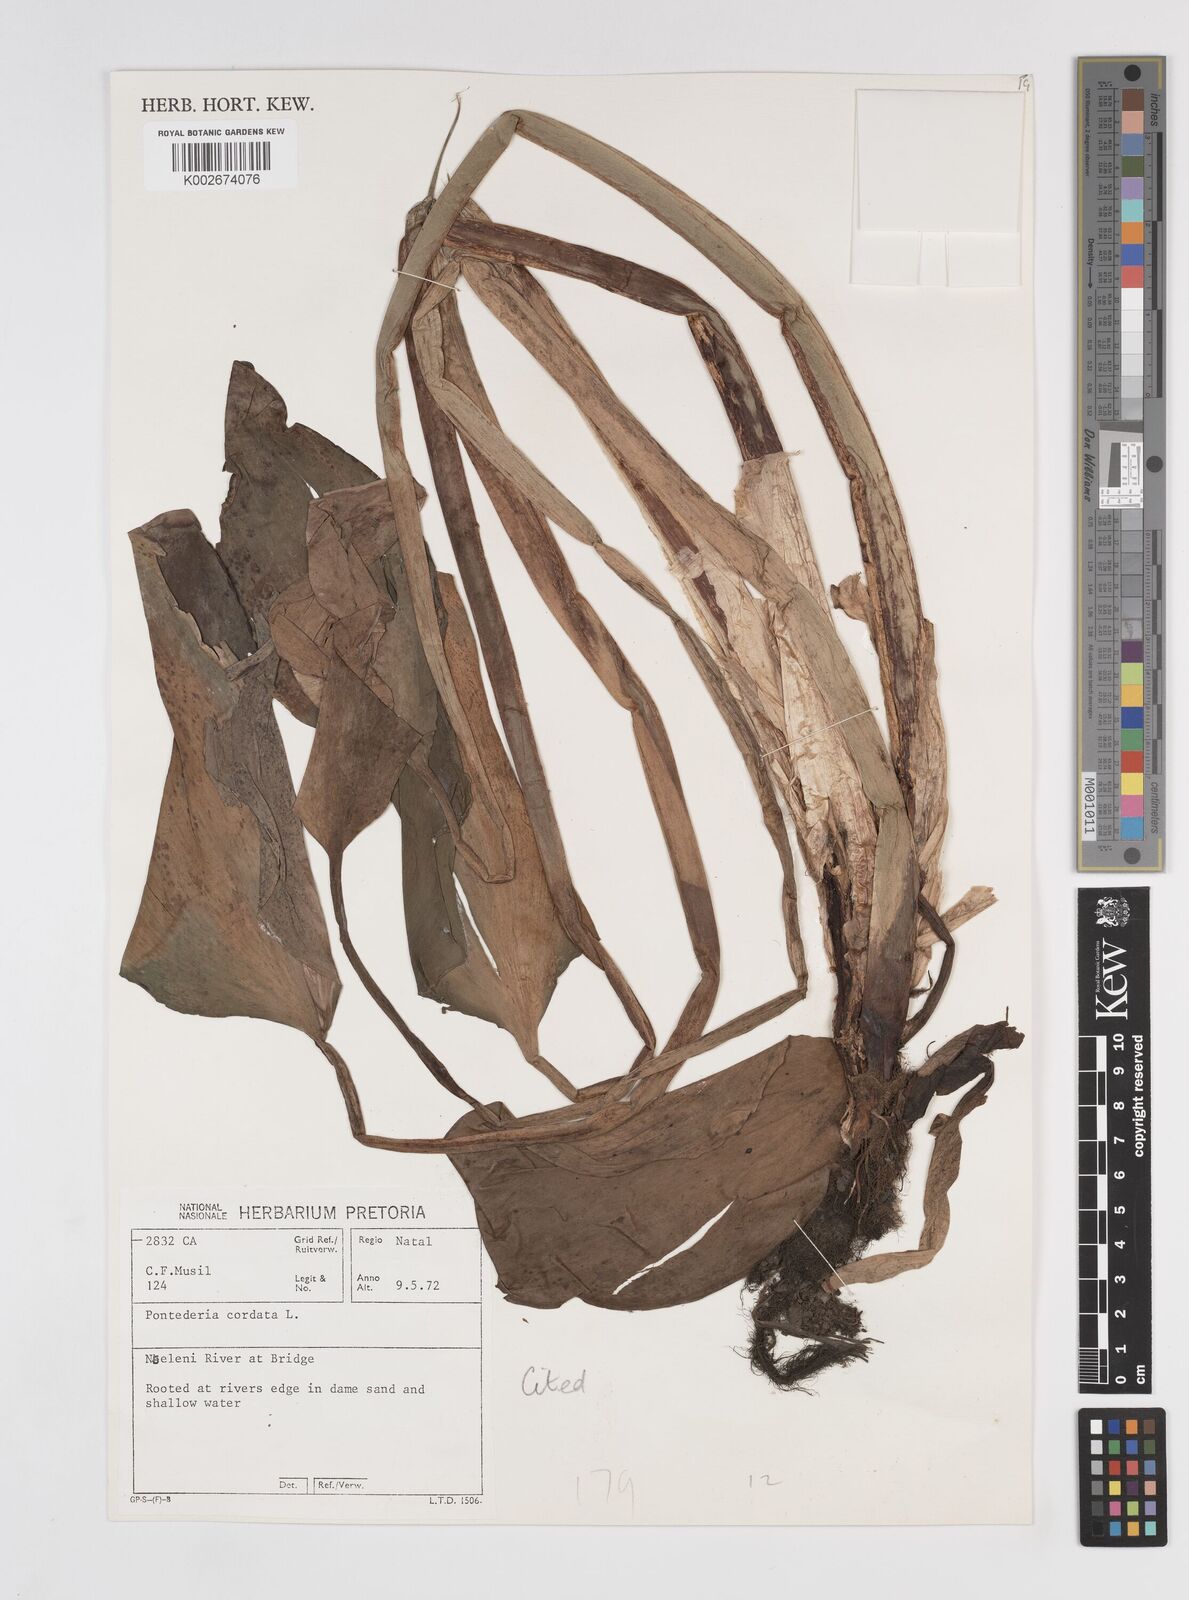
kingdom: Plantae
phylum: Tracheophyta
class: Liliopsida
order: Commelinales
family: Pontederiaceae
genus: Pontederia
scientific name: Pontederia cordata
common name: Pickerelweed
